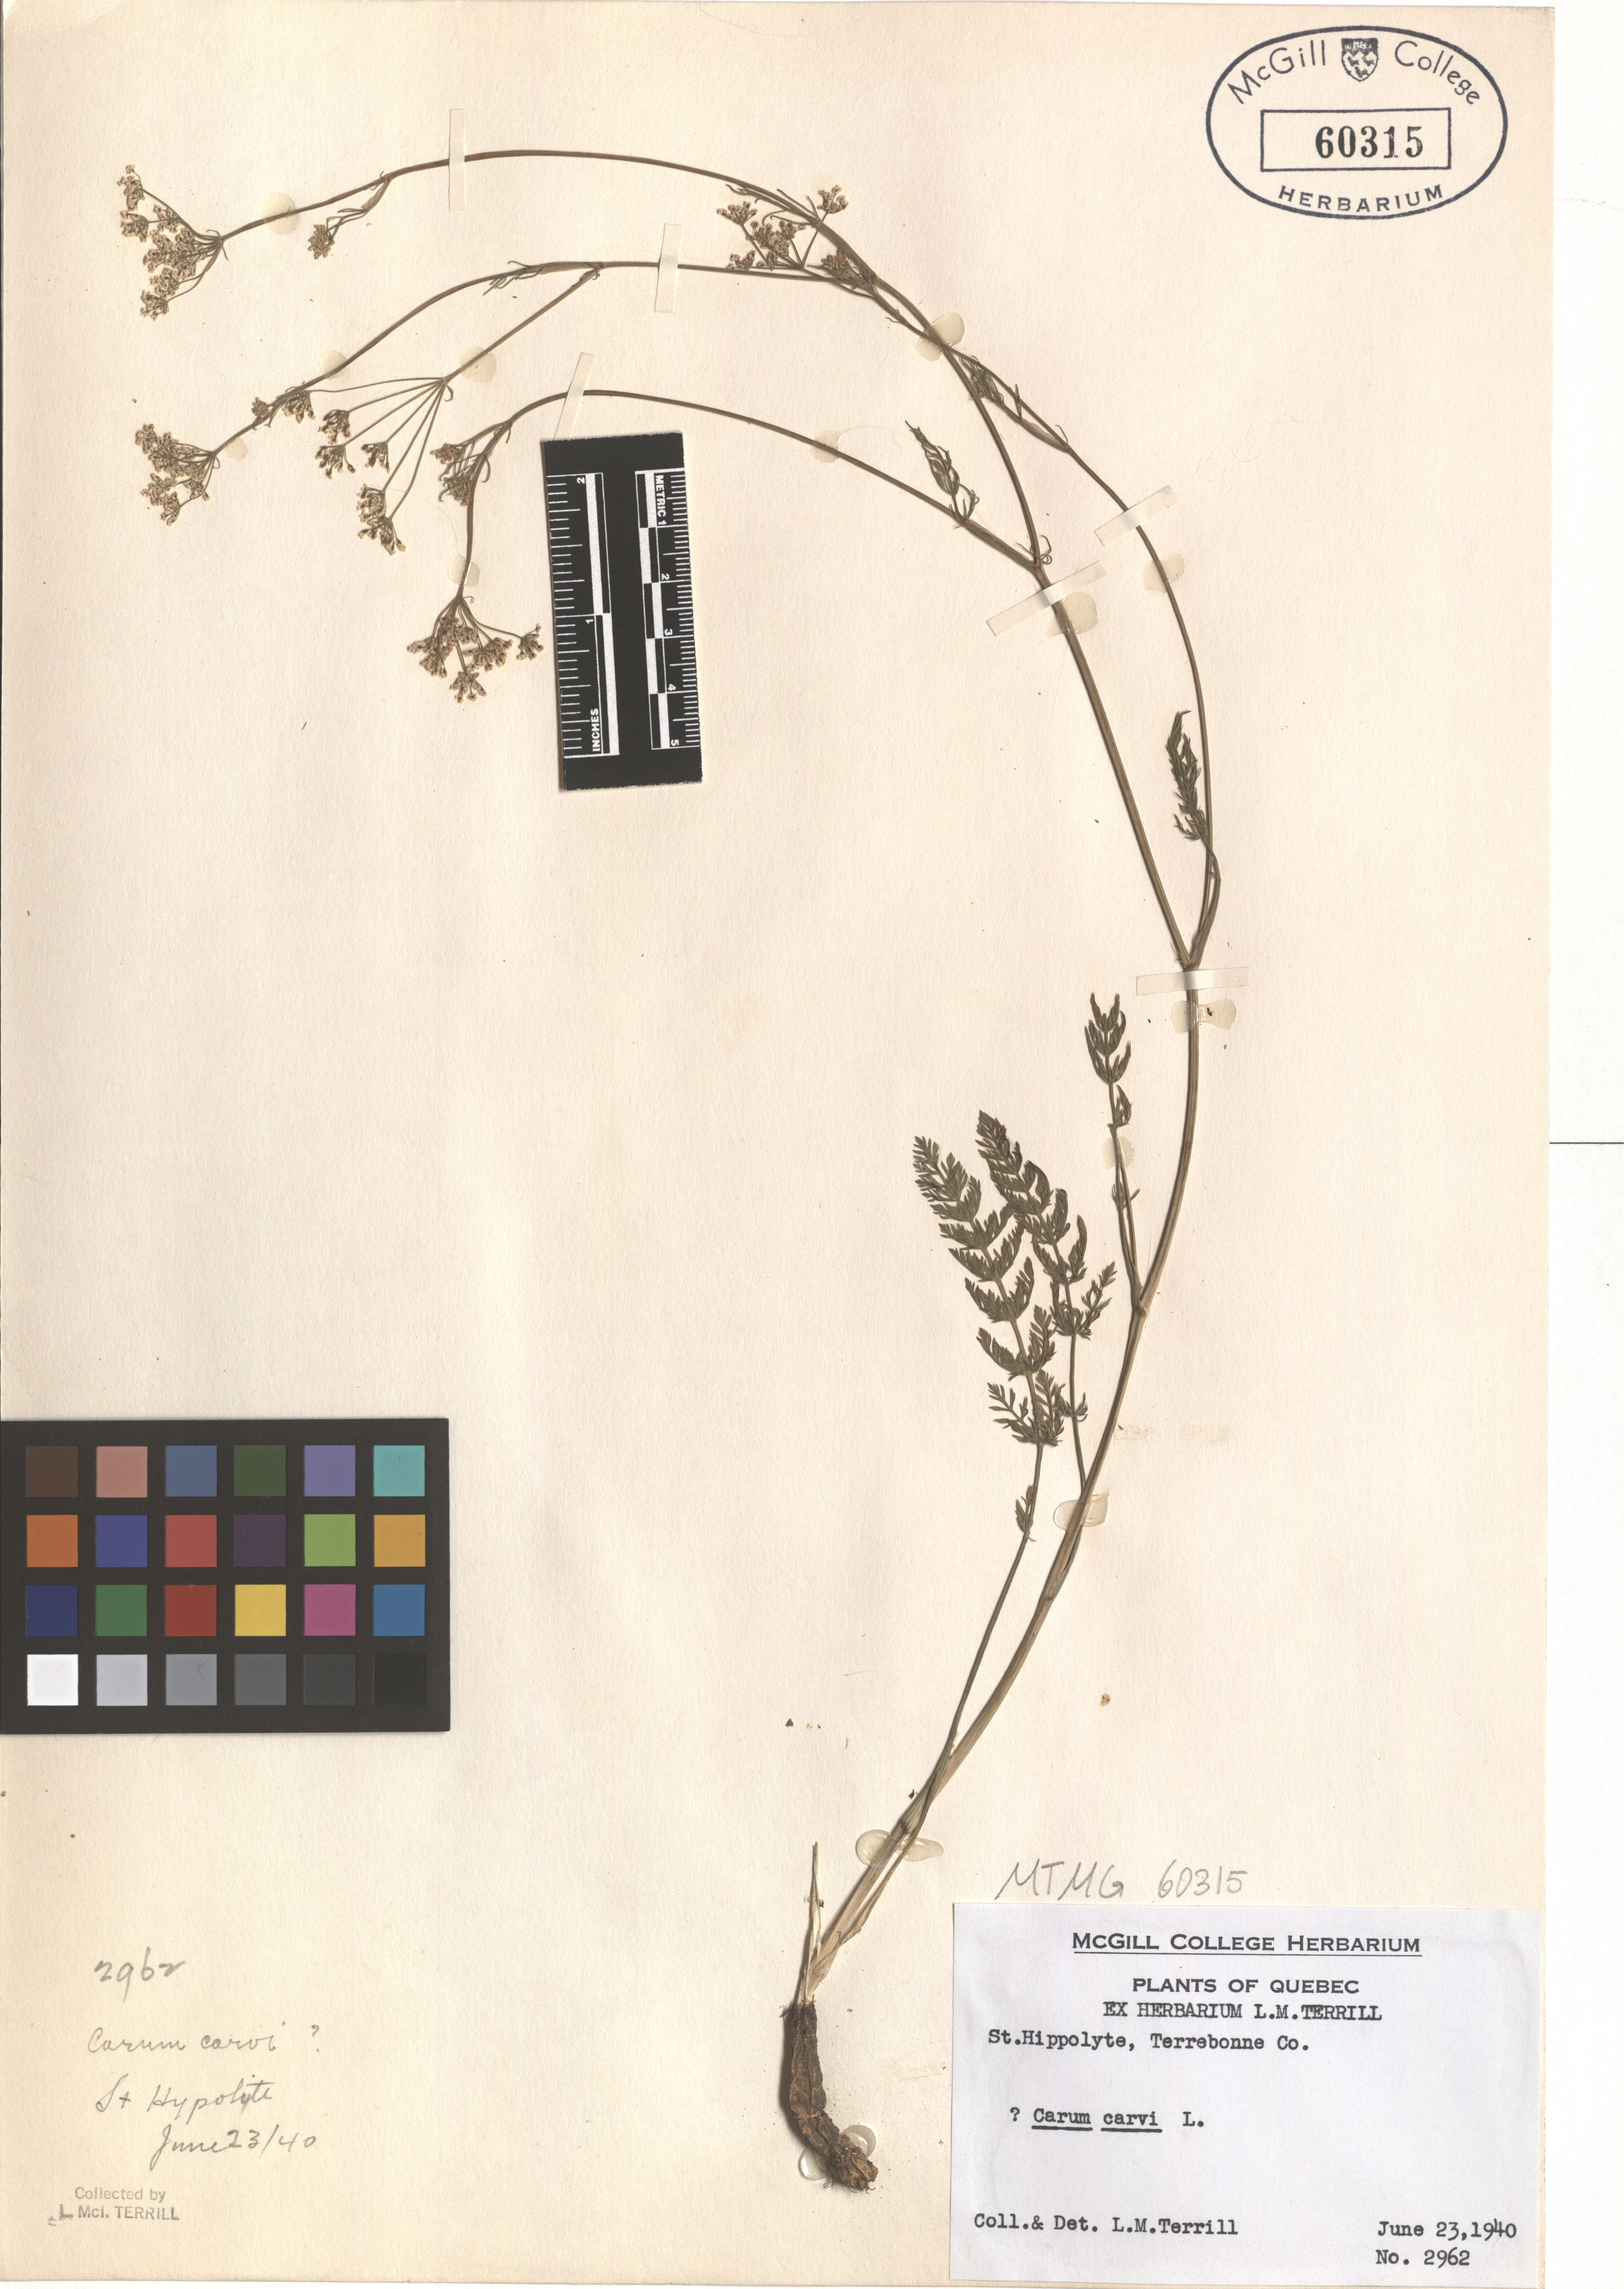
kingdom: Plantae
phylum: Tracheophyta
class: Magnoliopsida
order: Apiales
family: Apiaceae
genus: Carum
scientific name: Carum carvi
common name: Caraway
